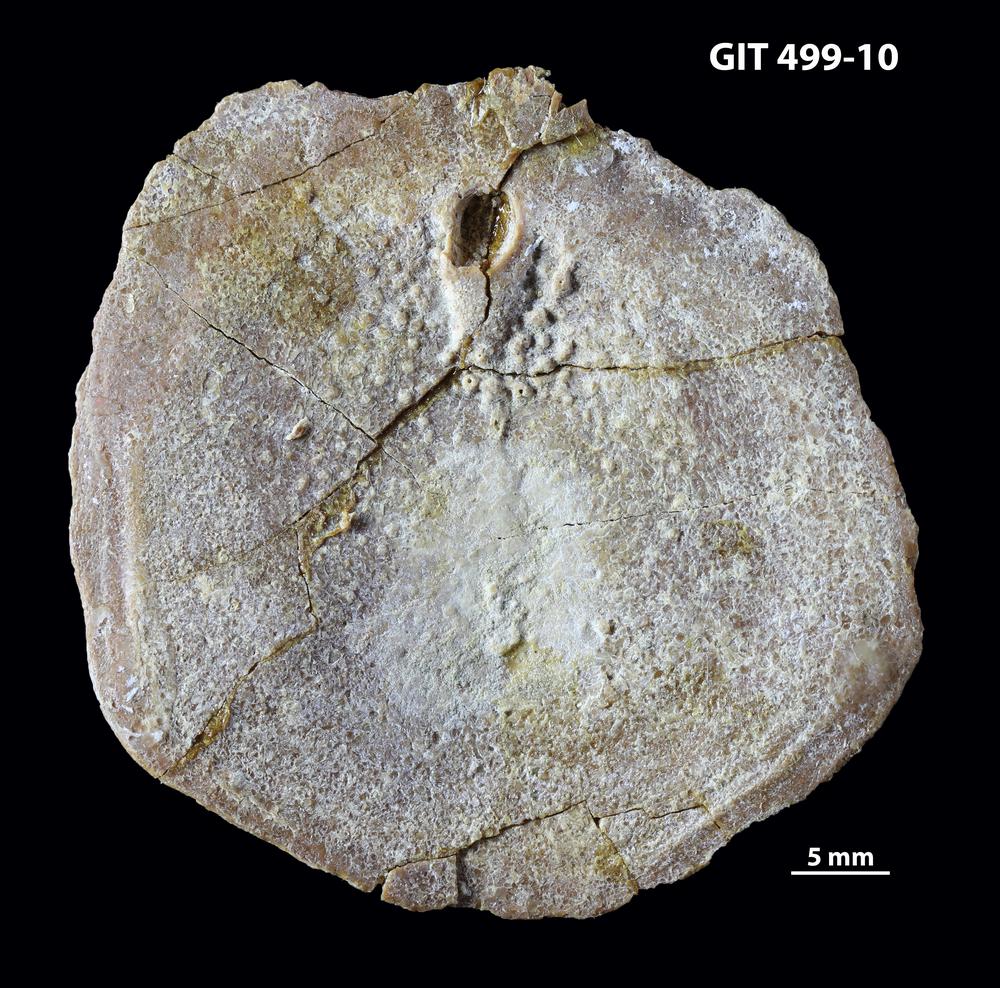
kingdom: Animalia
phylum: Chordata
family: Holoptychiidae
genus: Glyptolepis
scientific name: Glyptolepis
